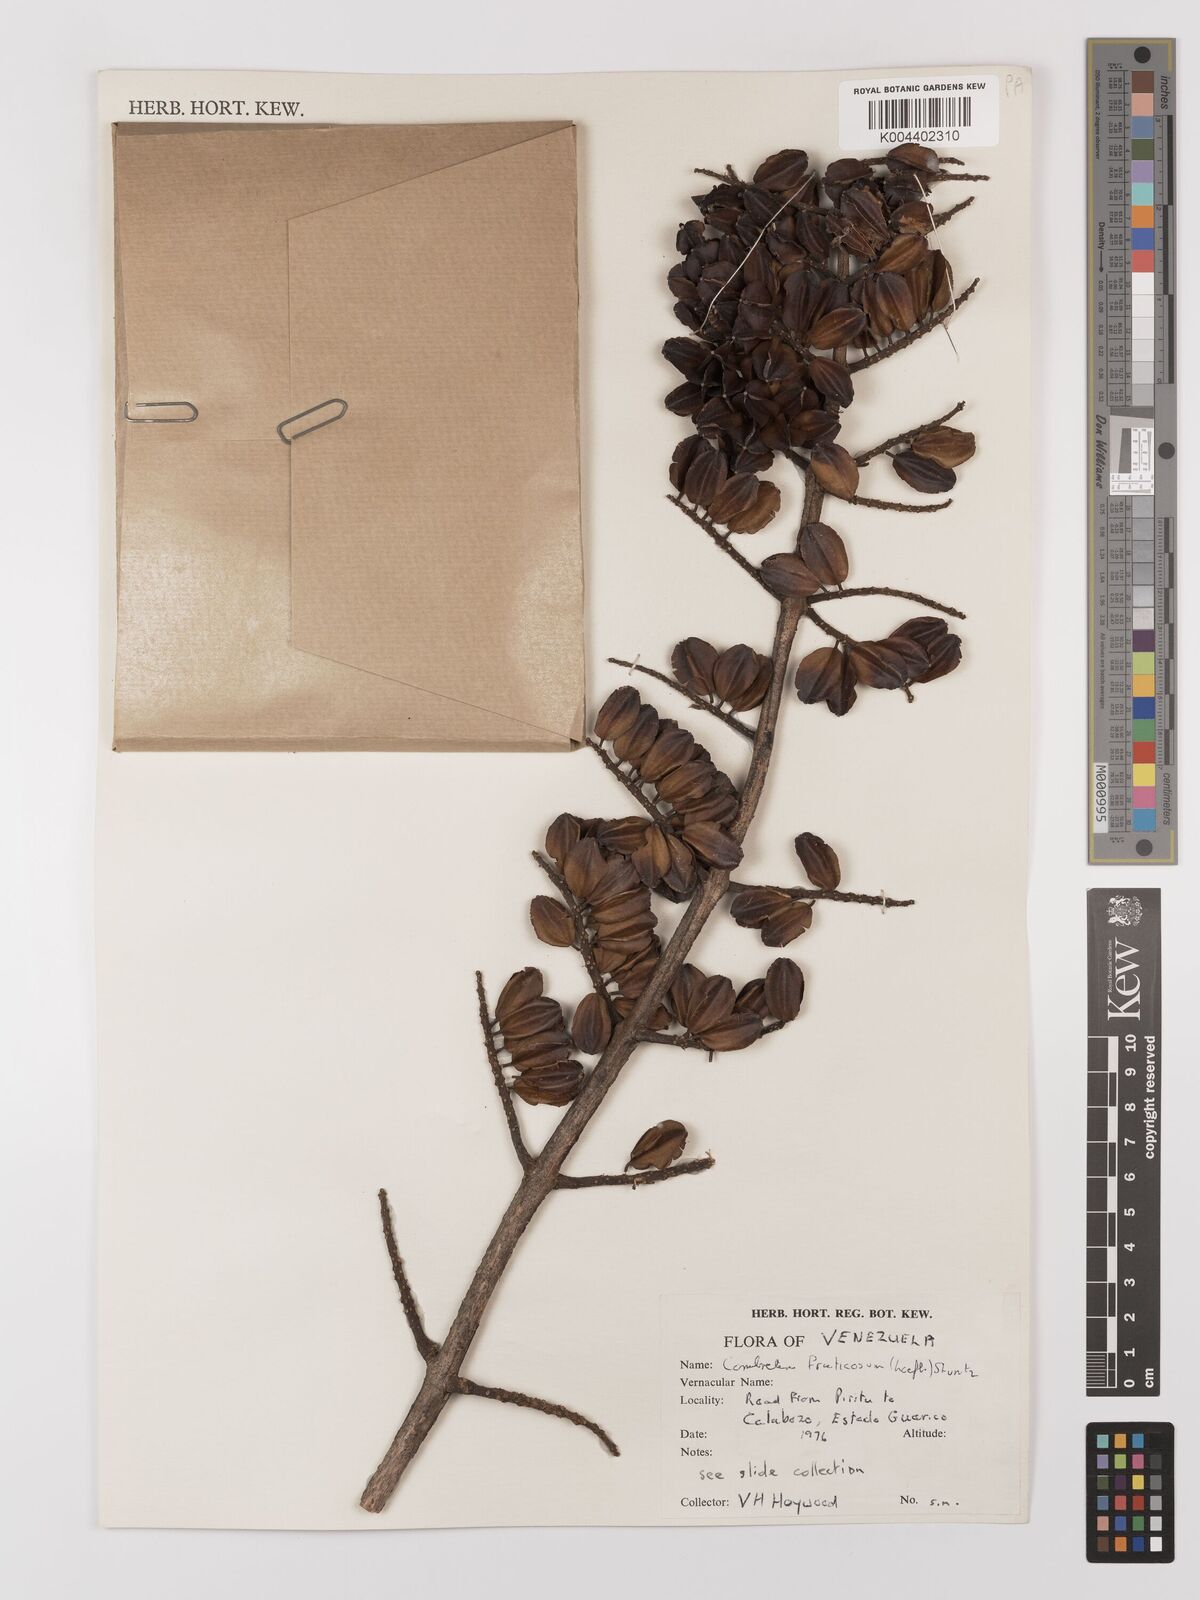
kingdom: Plantae
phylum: Tracheophyta
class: Magnoliopsida
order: Myrtales
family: Combretaceae
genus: Combretum
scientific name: Combretum fruticosum
